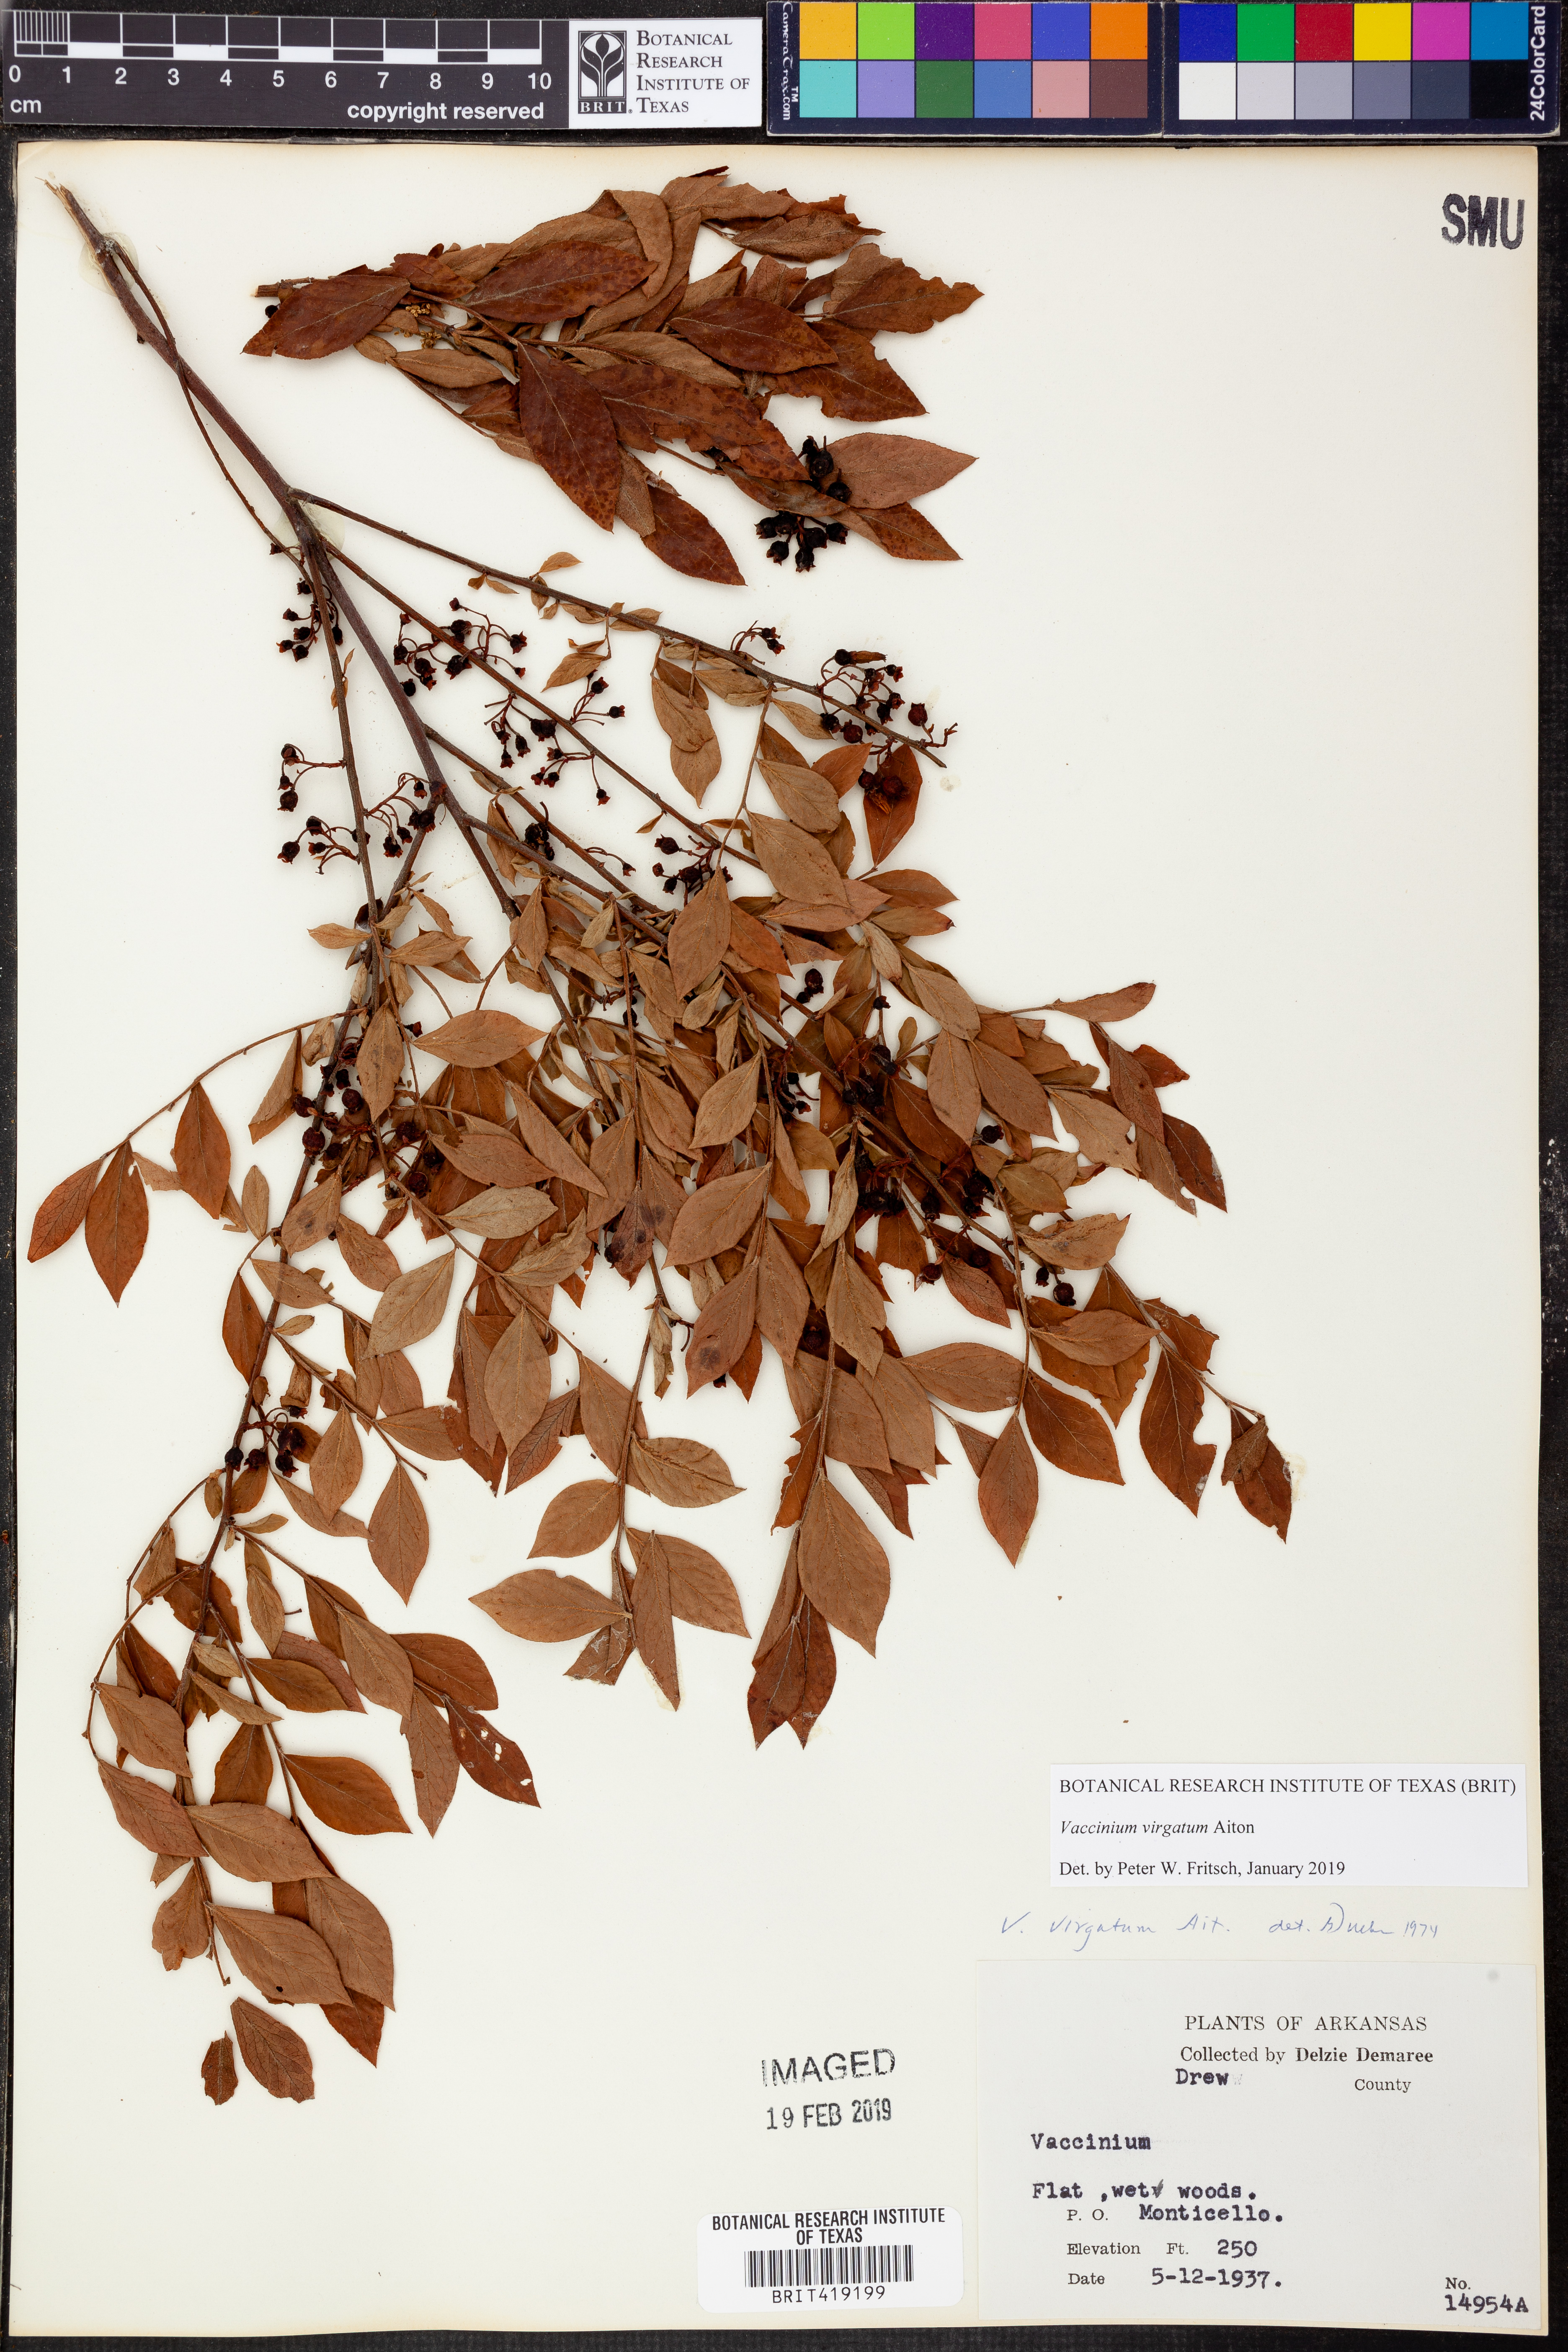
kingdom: Plantae
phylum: Tracheophyta
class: Magnoliopsida
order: Ericales
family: Ericaceae
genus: Vaccinium
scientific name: Vaccinium corymbosum
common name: Blueberry
